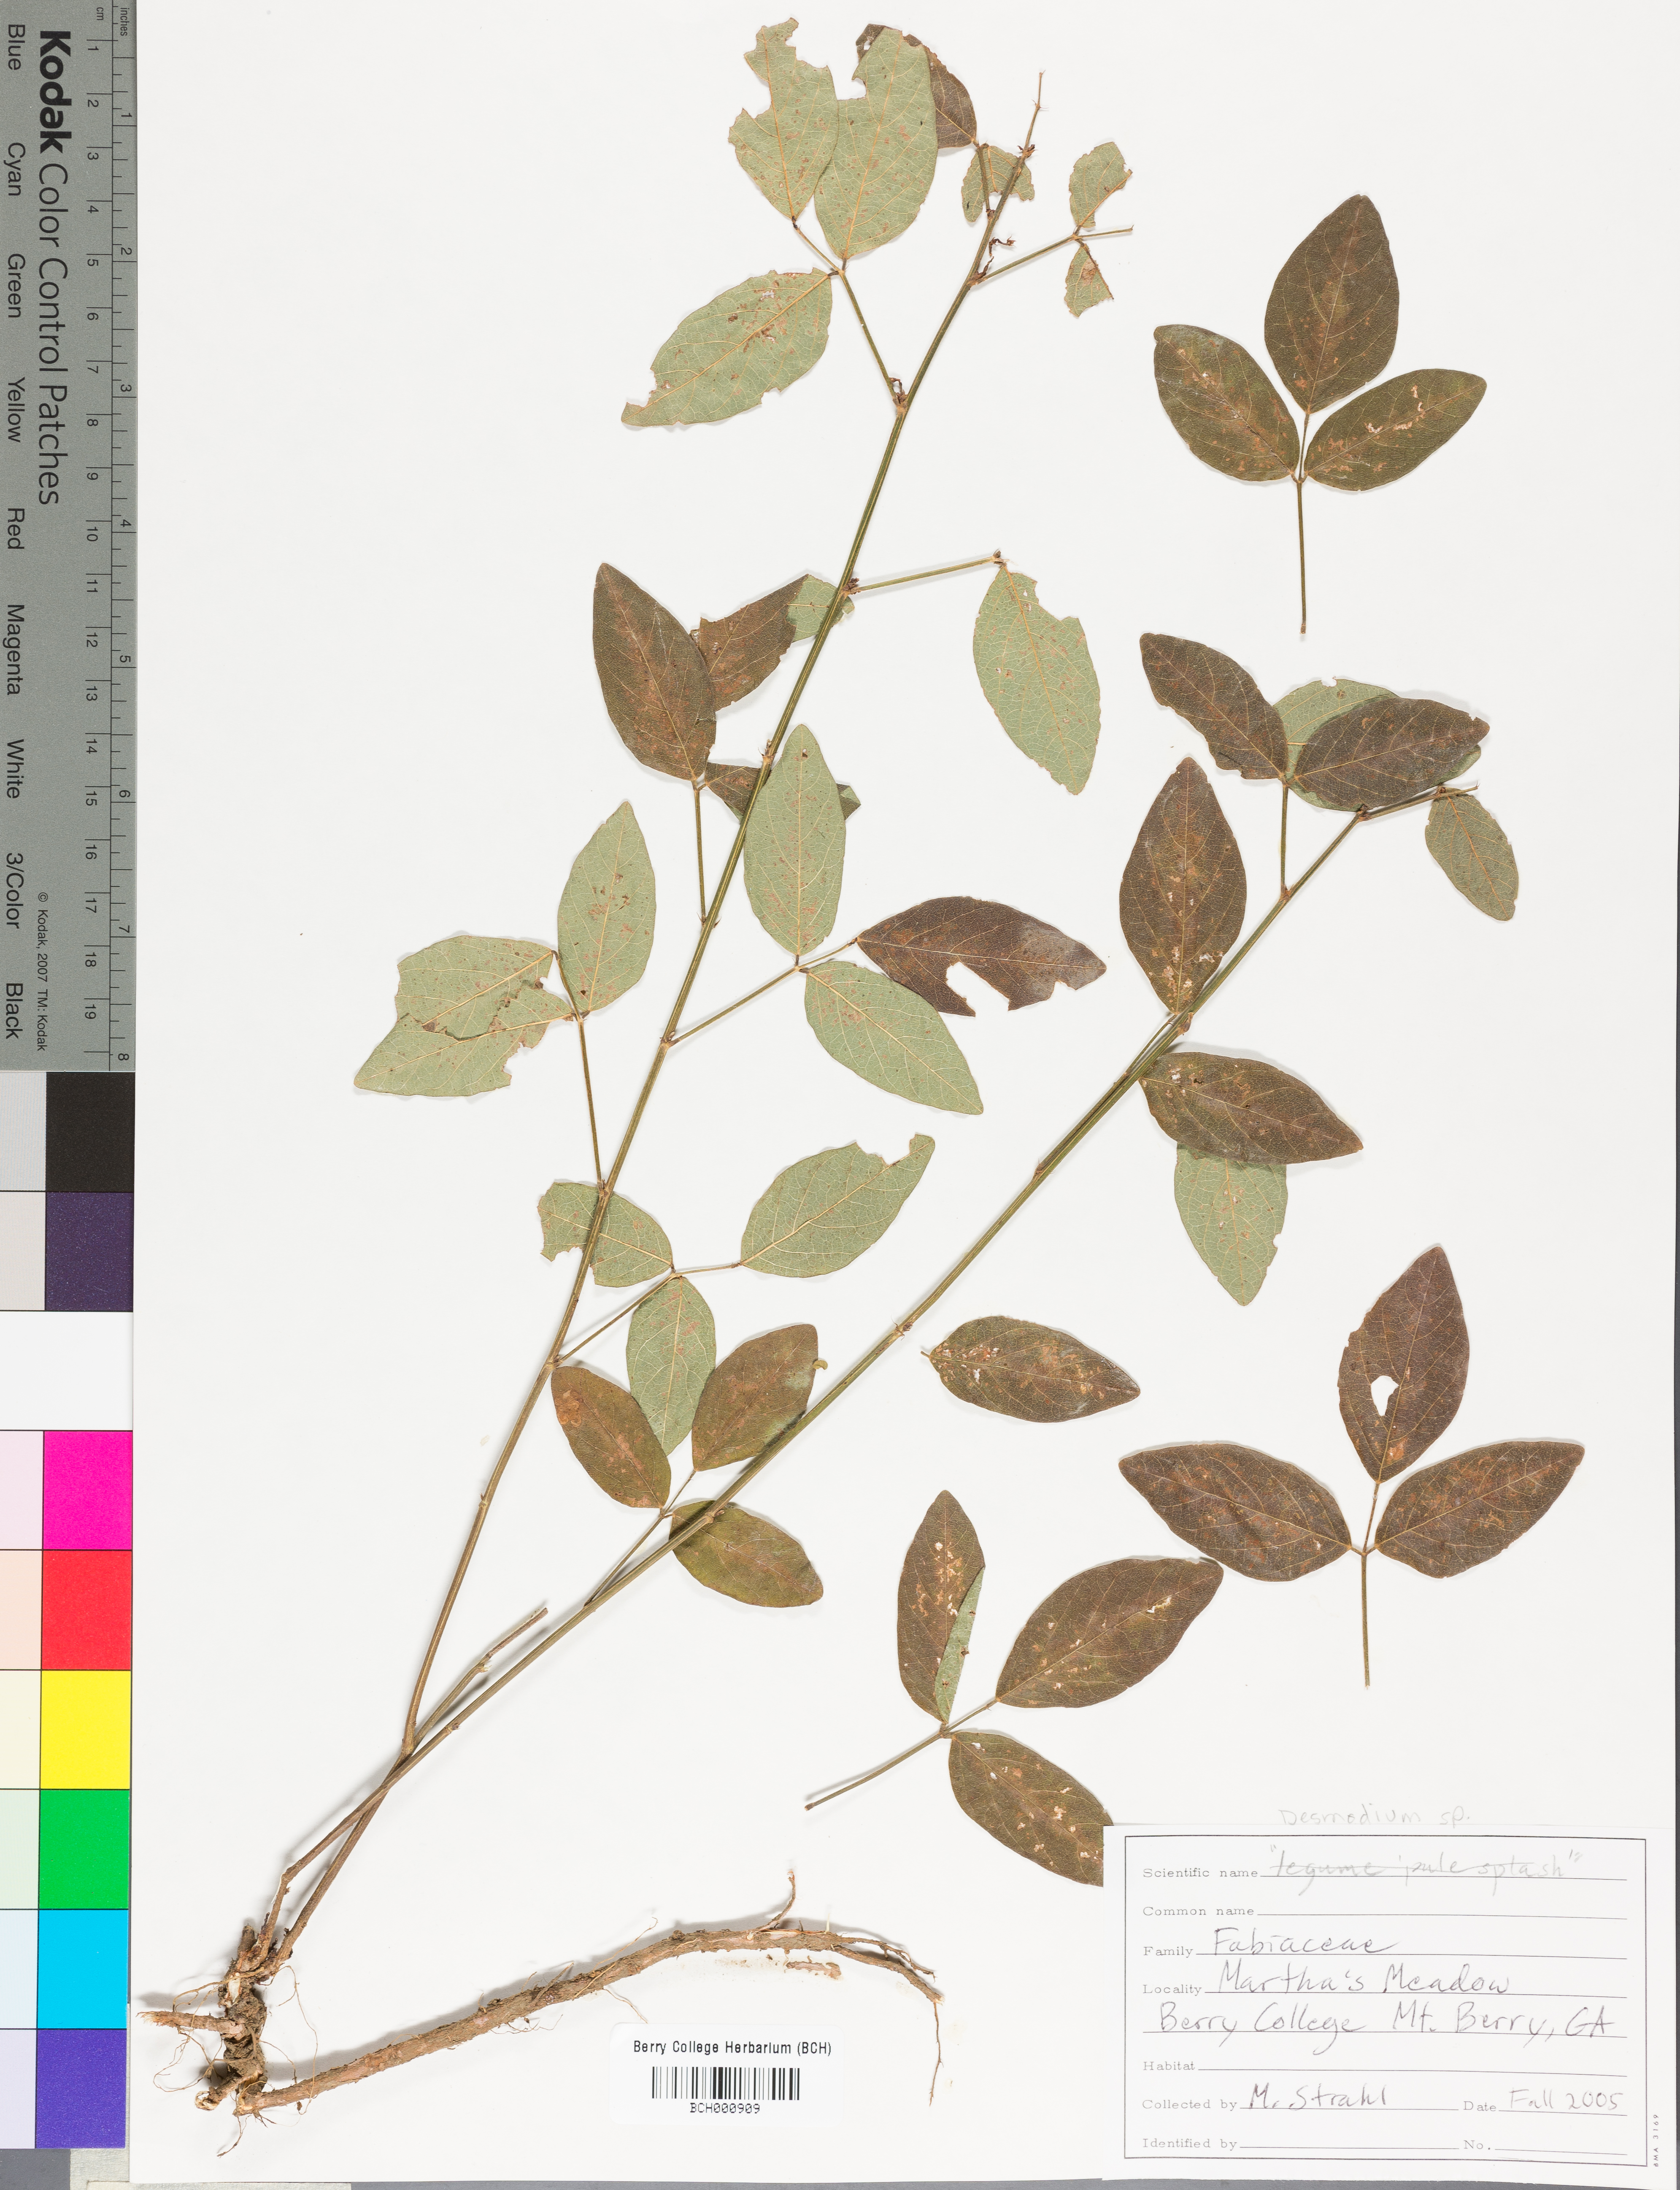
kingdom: Plantae
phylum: Tracheophyta
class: Magnoliopsida
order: Lamiales
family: Acanthaceae
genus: Adhatoda
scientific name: Adhatoda
